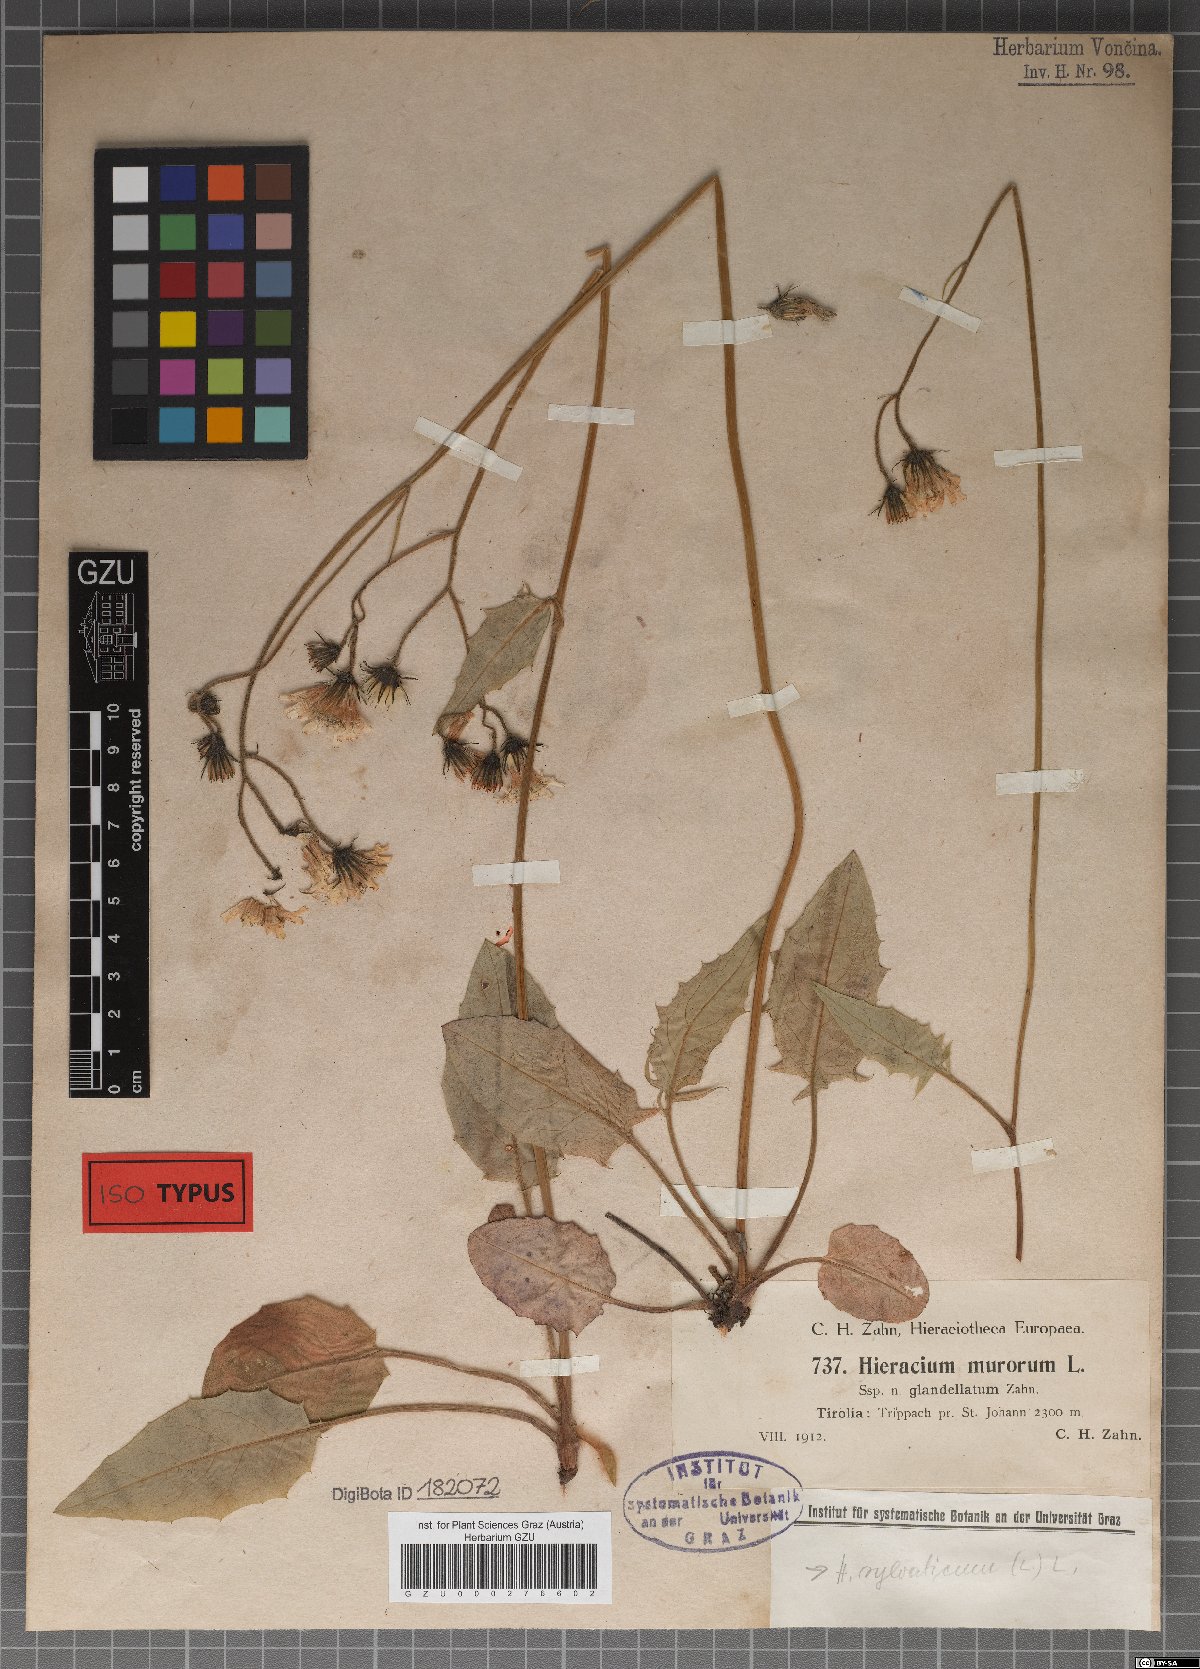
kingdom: Plantae
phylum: Tracheophyta
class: Magnoliopsida
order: Asterales
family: Asteraceae
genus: Hieracium
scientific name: Hieracium murorum
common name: Wall hawkweed
